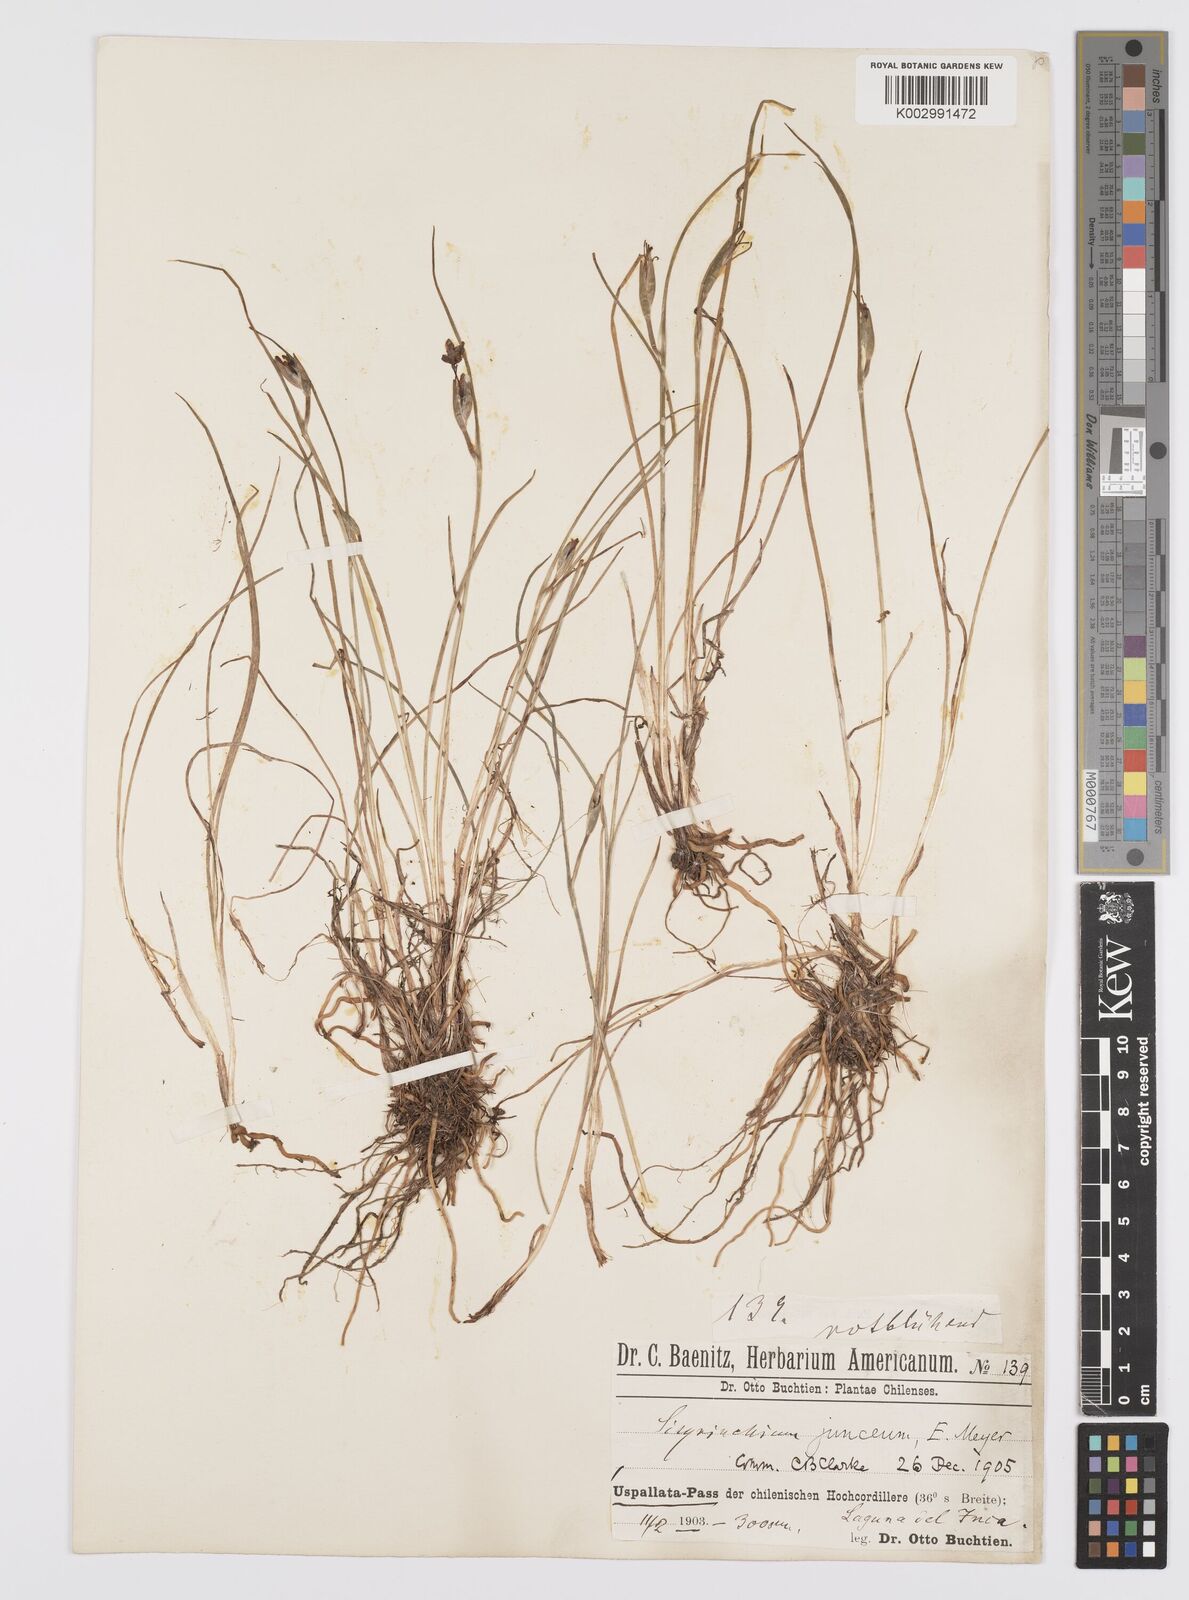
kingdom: Plantae
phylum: Tracheophyta
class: Liliopsida
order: Asparagales
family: Iridaceae
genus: Olsynium
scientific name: Olsynium junceum
